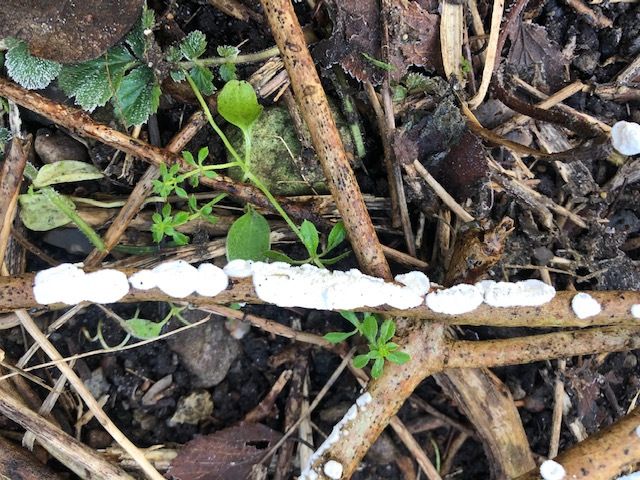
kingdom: Fungi
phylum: Basidiomycota
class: Agaricomycetes
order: Polyporales
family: Irpicaceae
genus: Byssomerulius
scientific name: Byssomerulius corium
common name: læder-åresvamp
